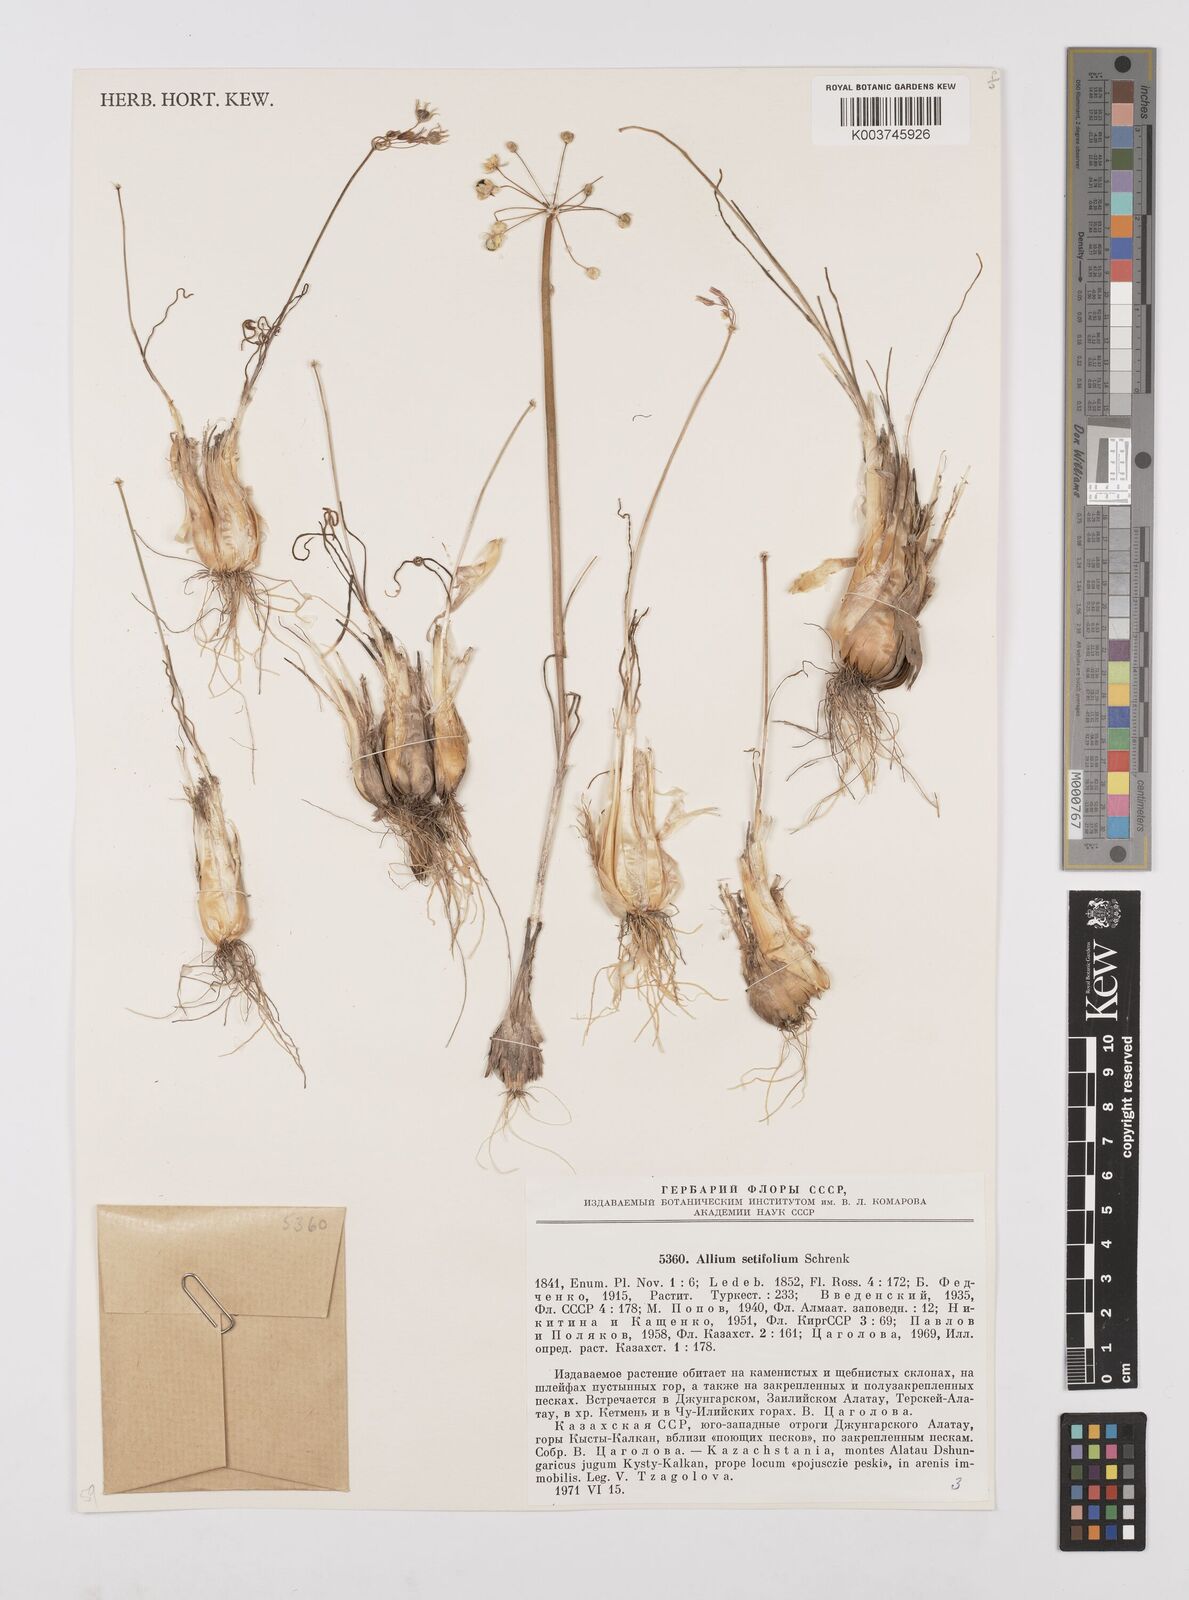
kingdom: Plantae
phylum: Tracheophyta
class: Liliopsida
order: Asparagales
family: Amaryllidaceae
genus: Allium
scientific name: Allium setifolium
